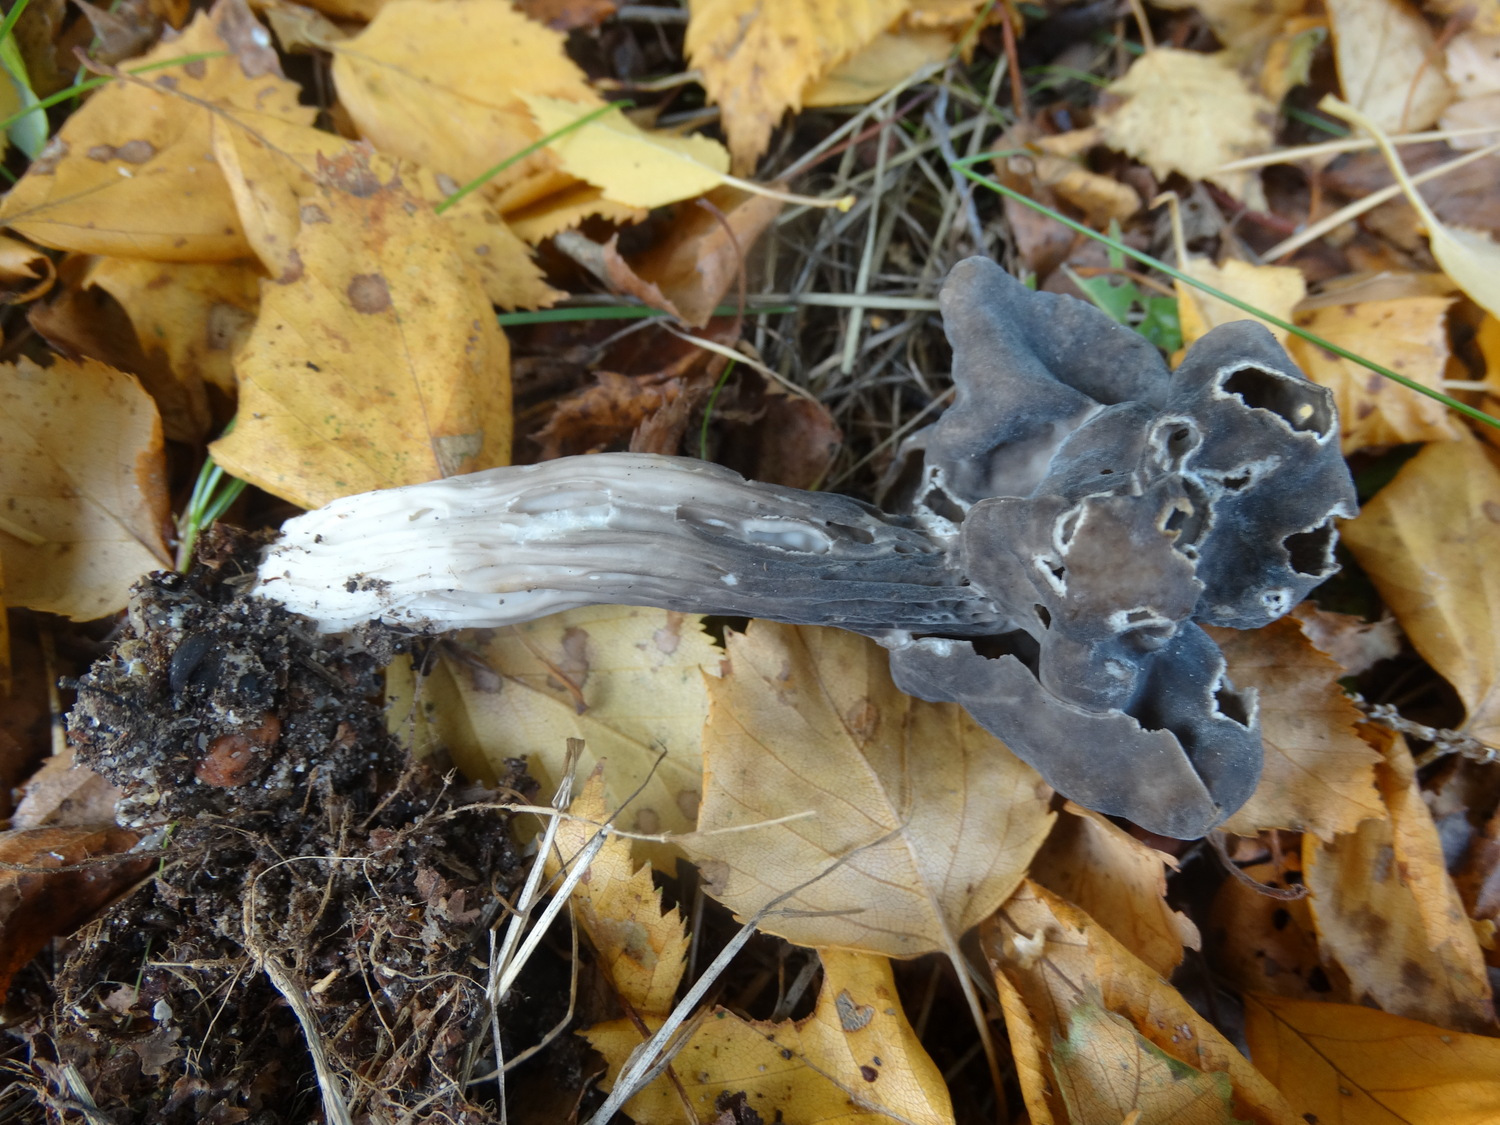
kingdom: Fungi
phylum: Ascomycota
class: Pezizomycetes
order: Pezizales
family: Helvellaceae
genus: Helvella
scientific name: Helvella lacunosa
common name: grubet foldhat
